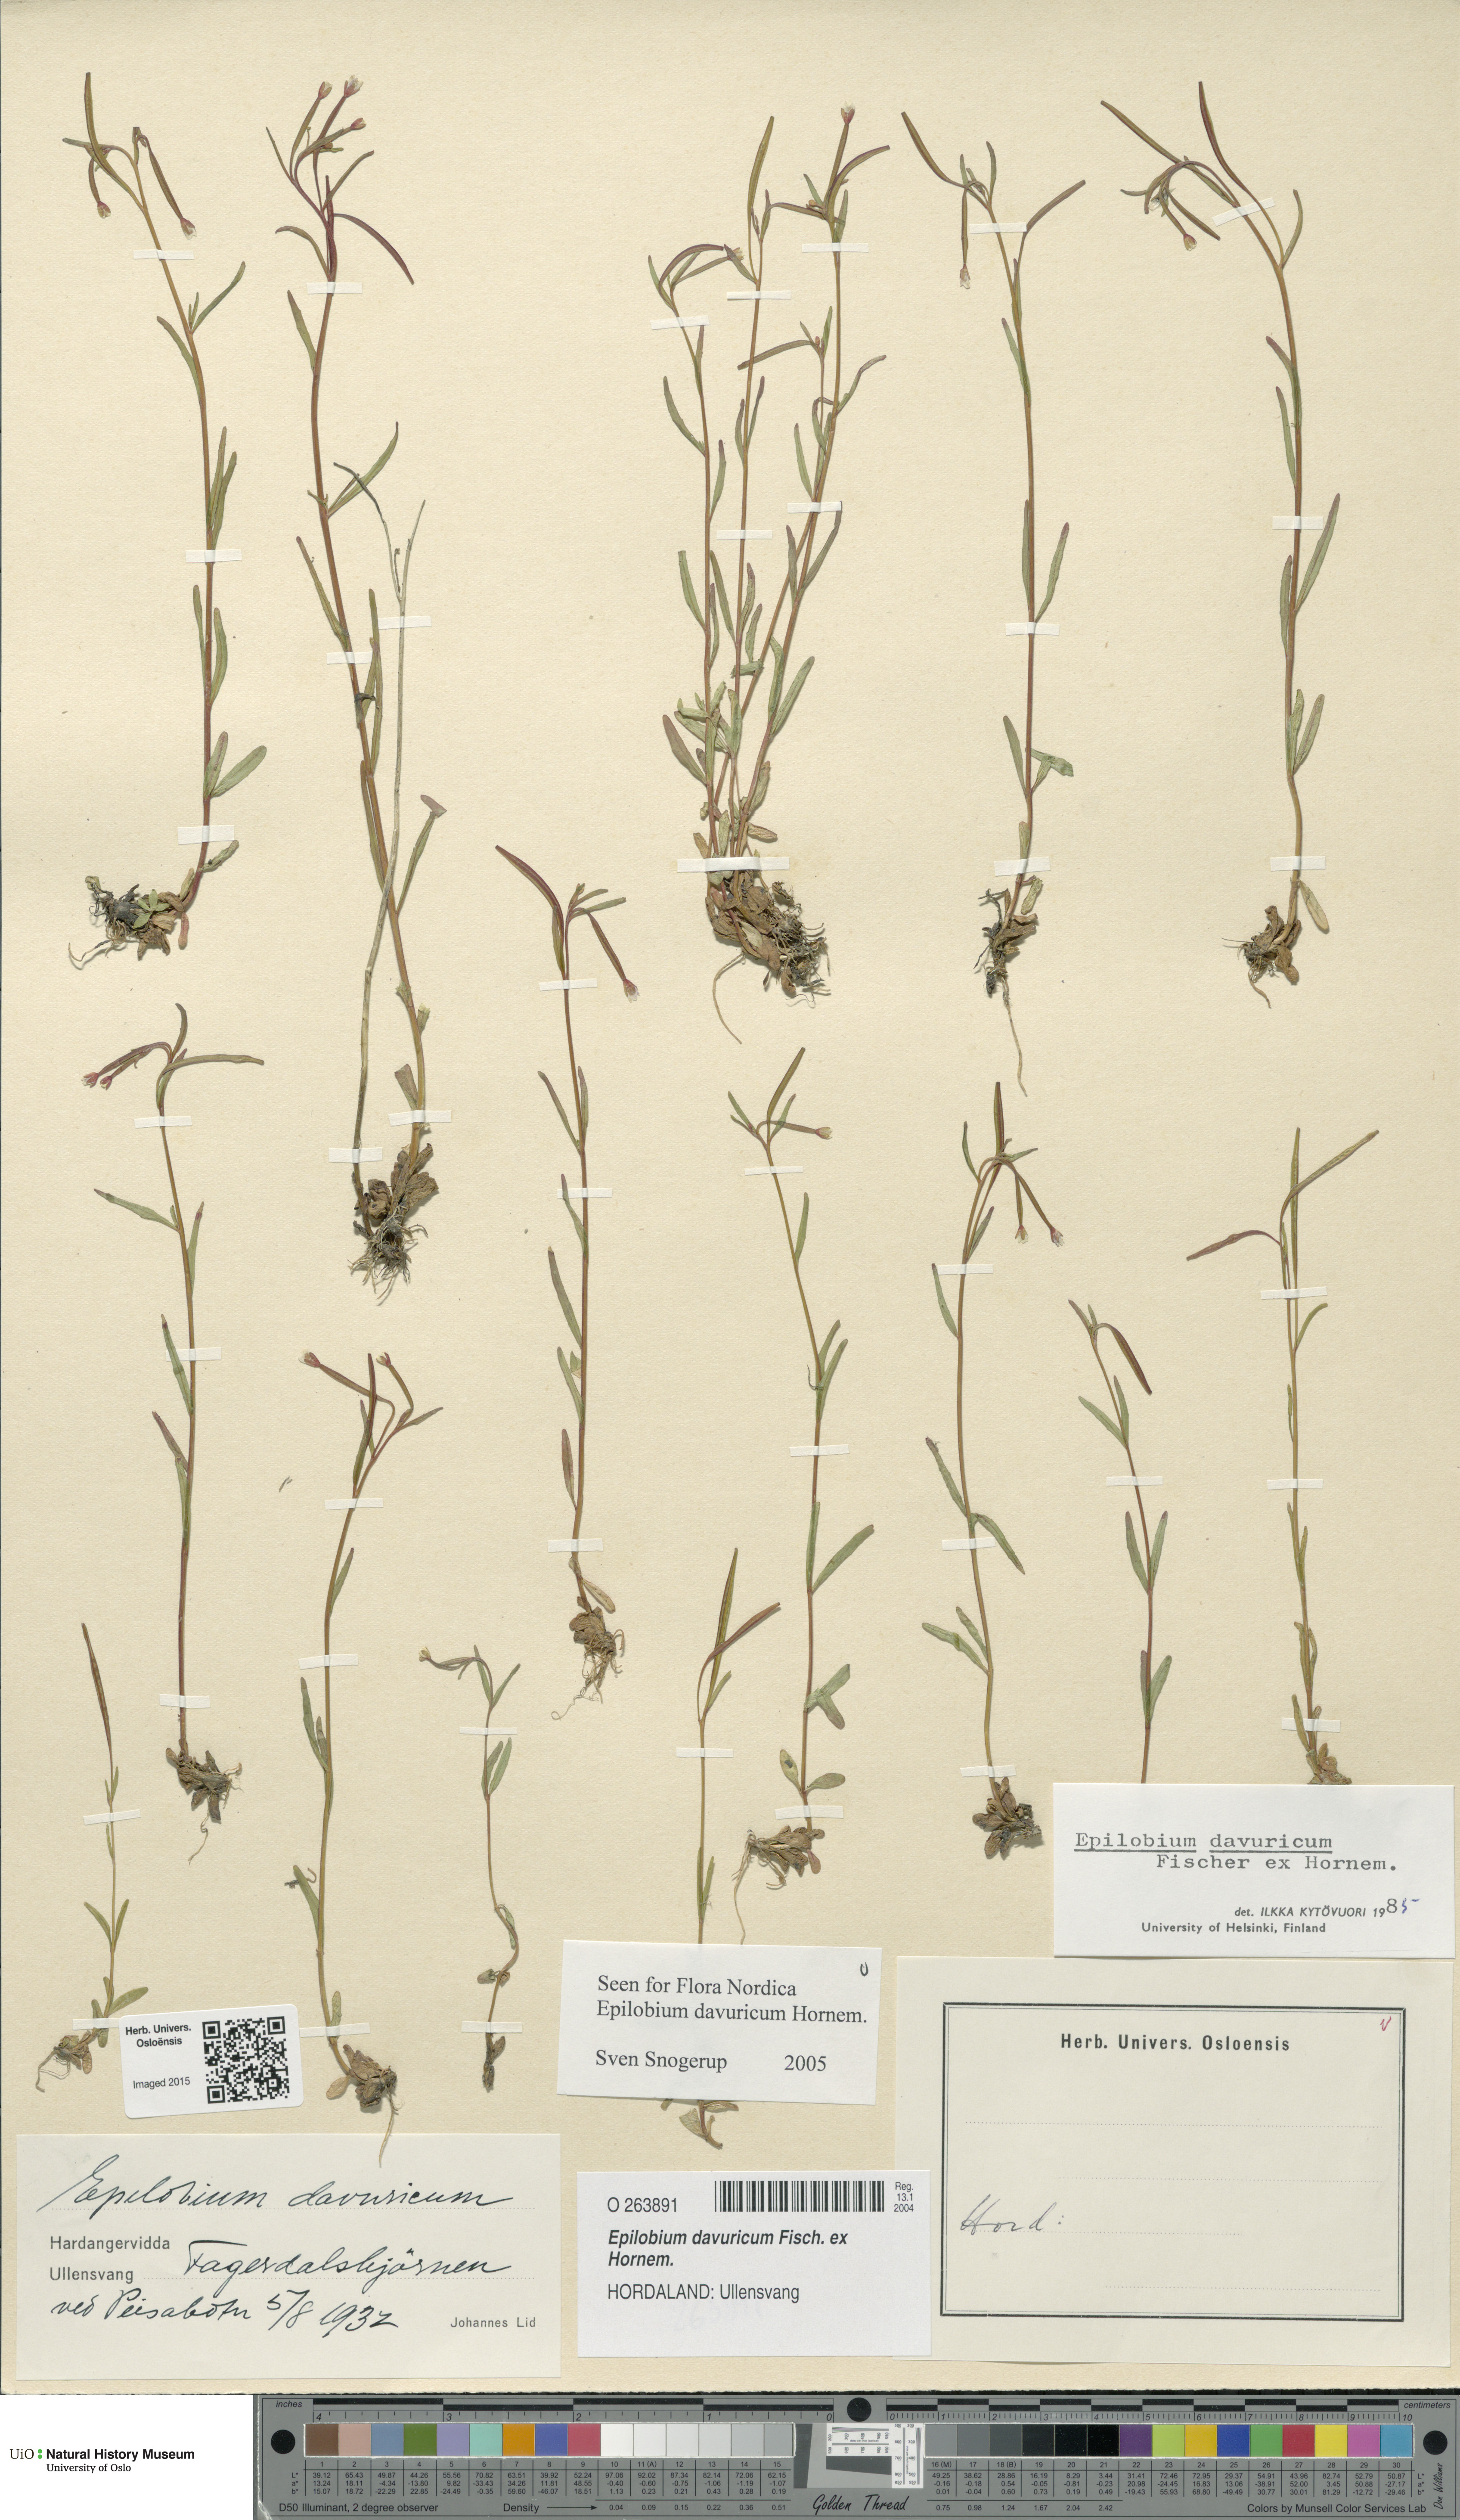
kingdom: Plantae
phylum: Tracheophyta
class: Magnoliopsida
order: Myrtales
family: Onagraceae
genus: Epilobium
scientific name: Epilobium davuricum
